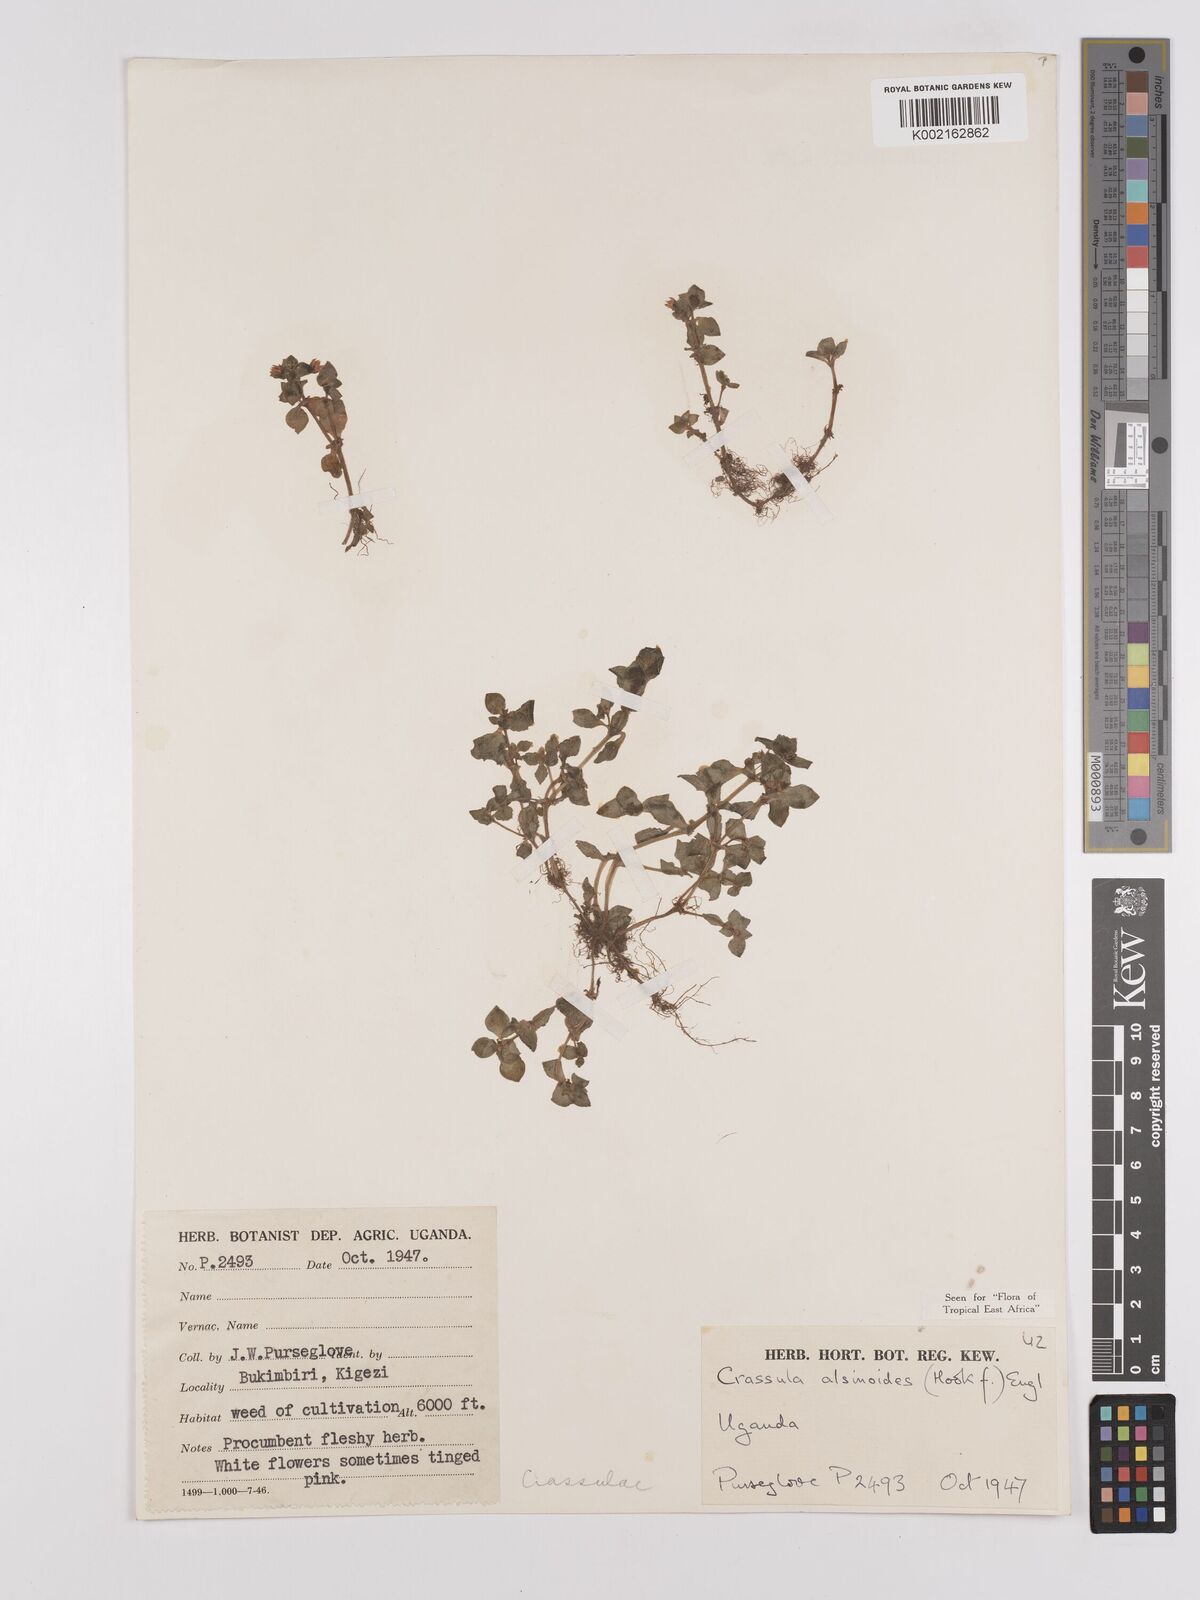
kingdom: Plantae
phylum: Tracheophyta
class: Magnoliopsida
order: Saxifragales
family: Crassulaceae
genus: Crassula
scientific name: Crassula alsinoides
